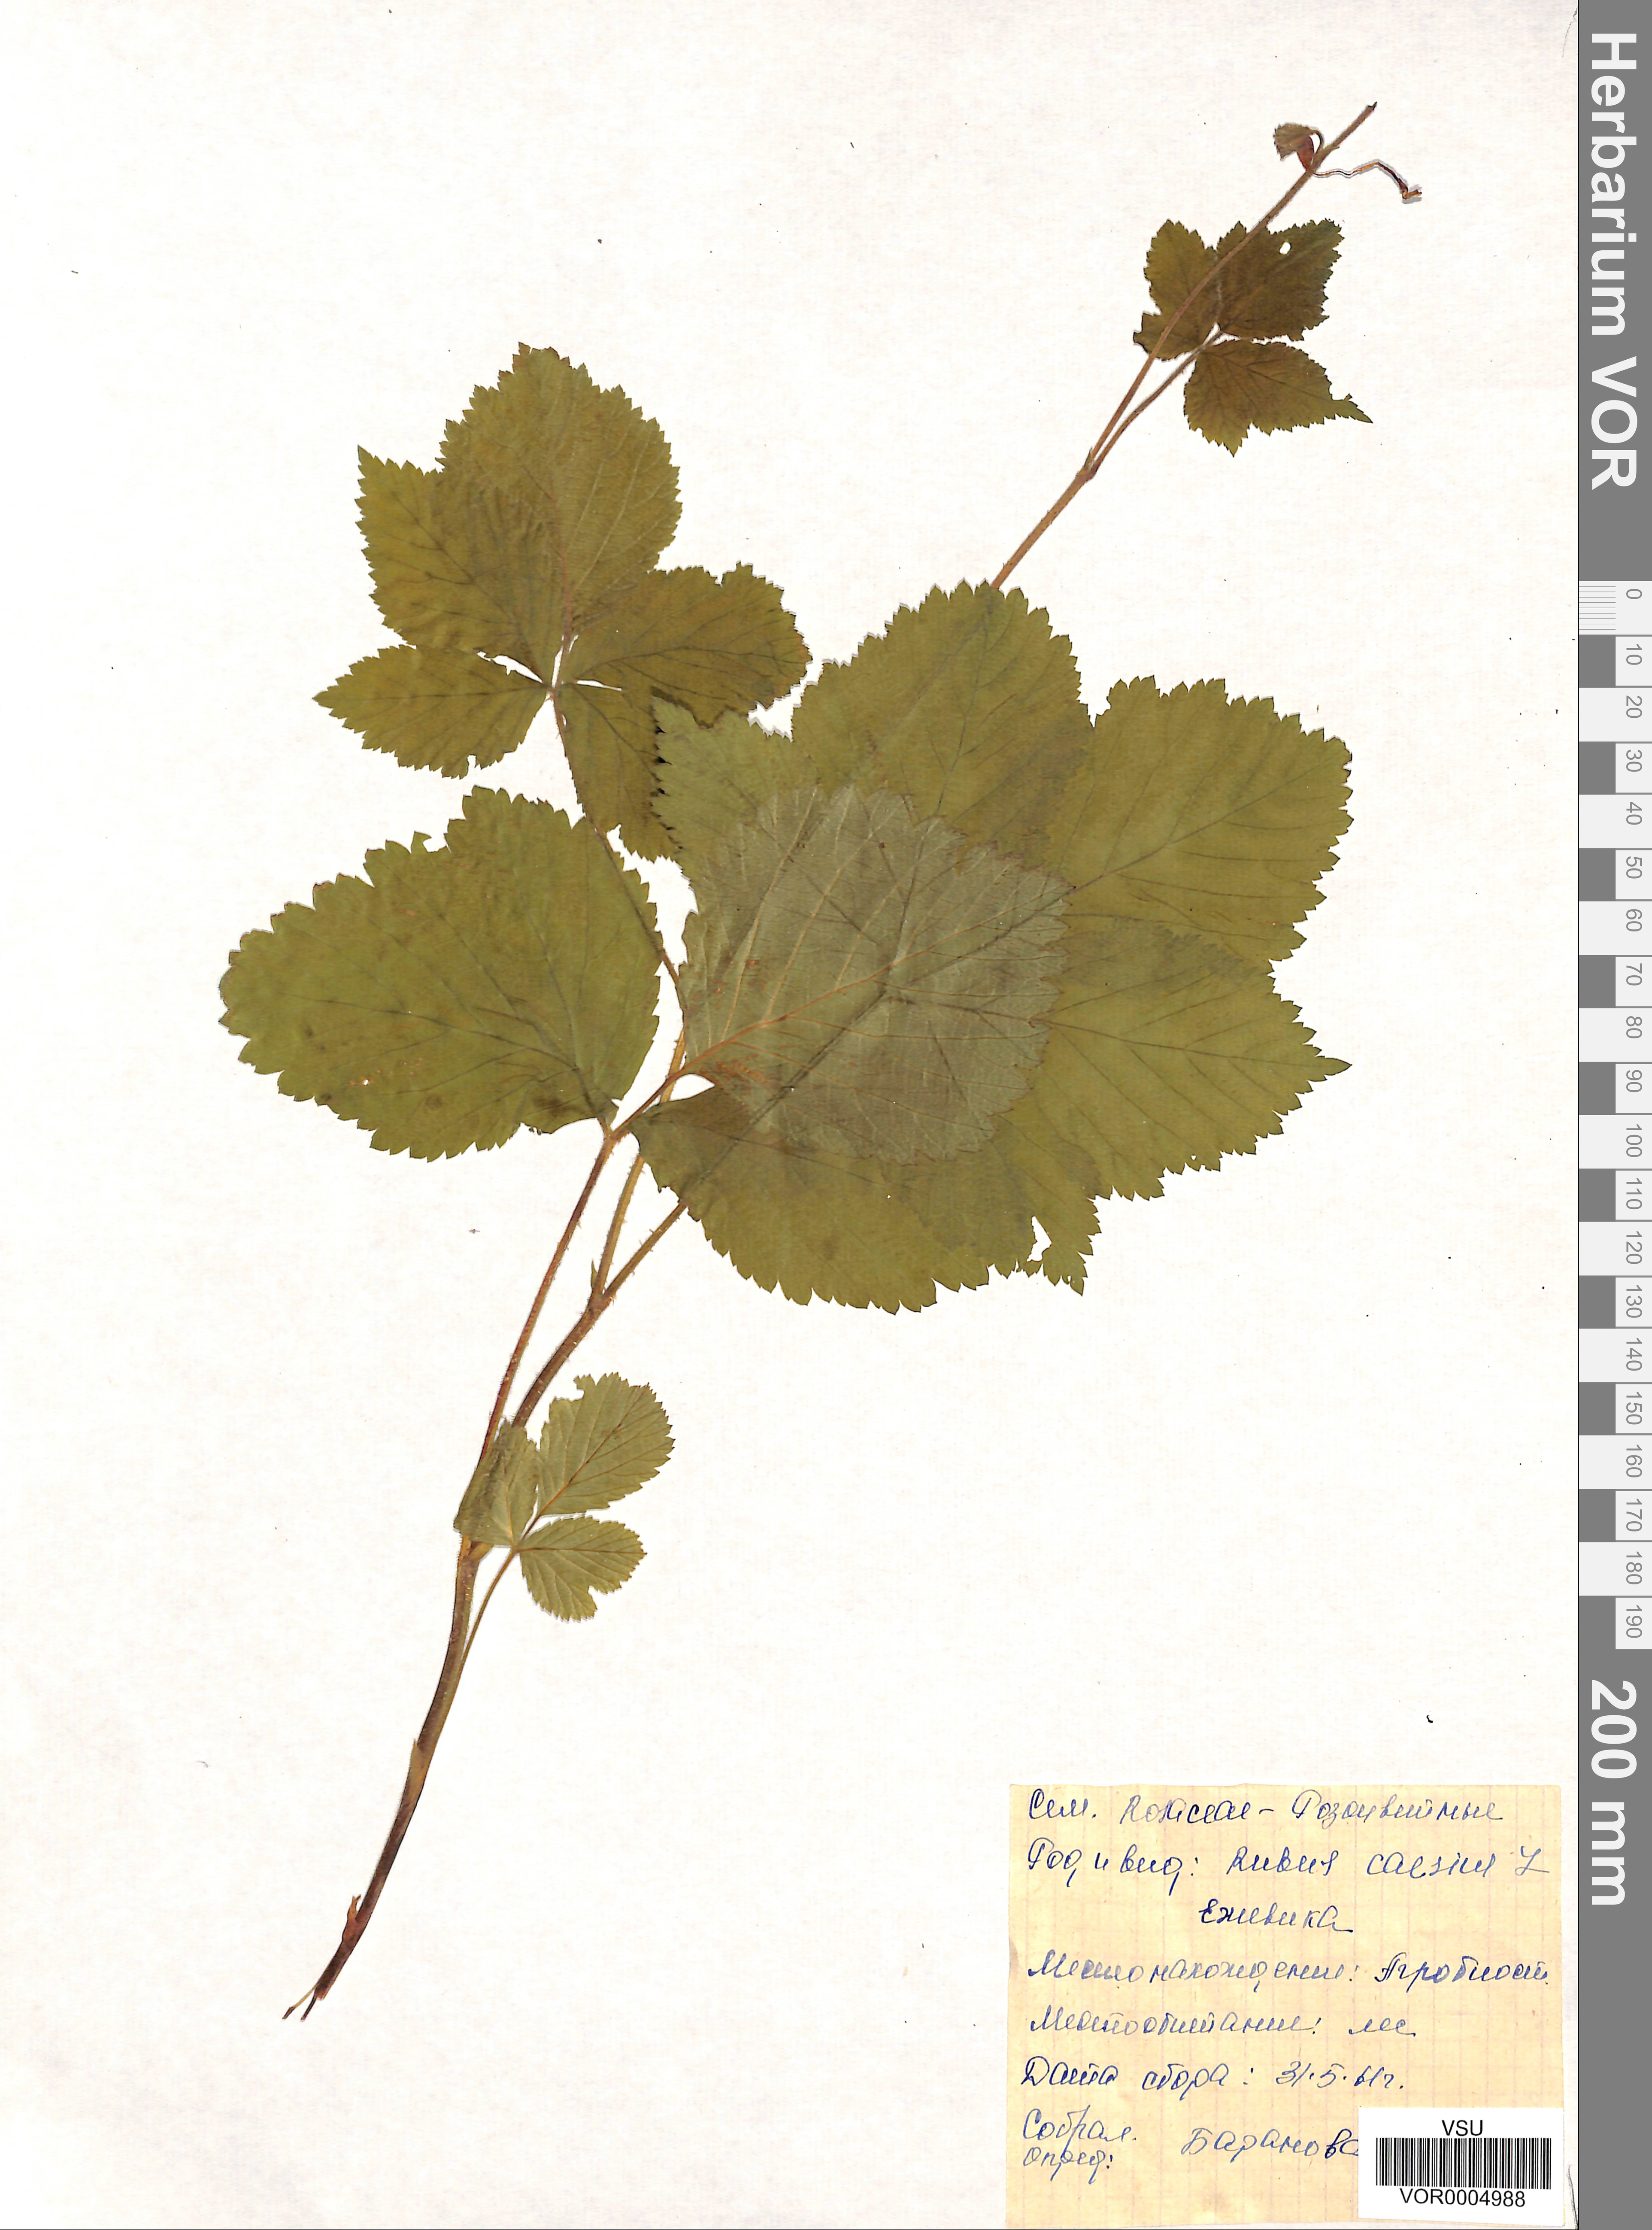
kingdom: Plantae
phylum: Tracheophyta
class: Magnoliopsida
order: Rosales
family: Rosaceae
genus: Rubus
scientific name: Rubus caesius
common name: Dewberry
